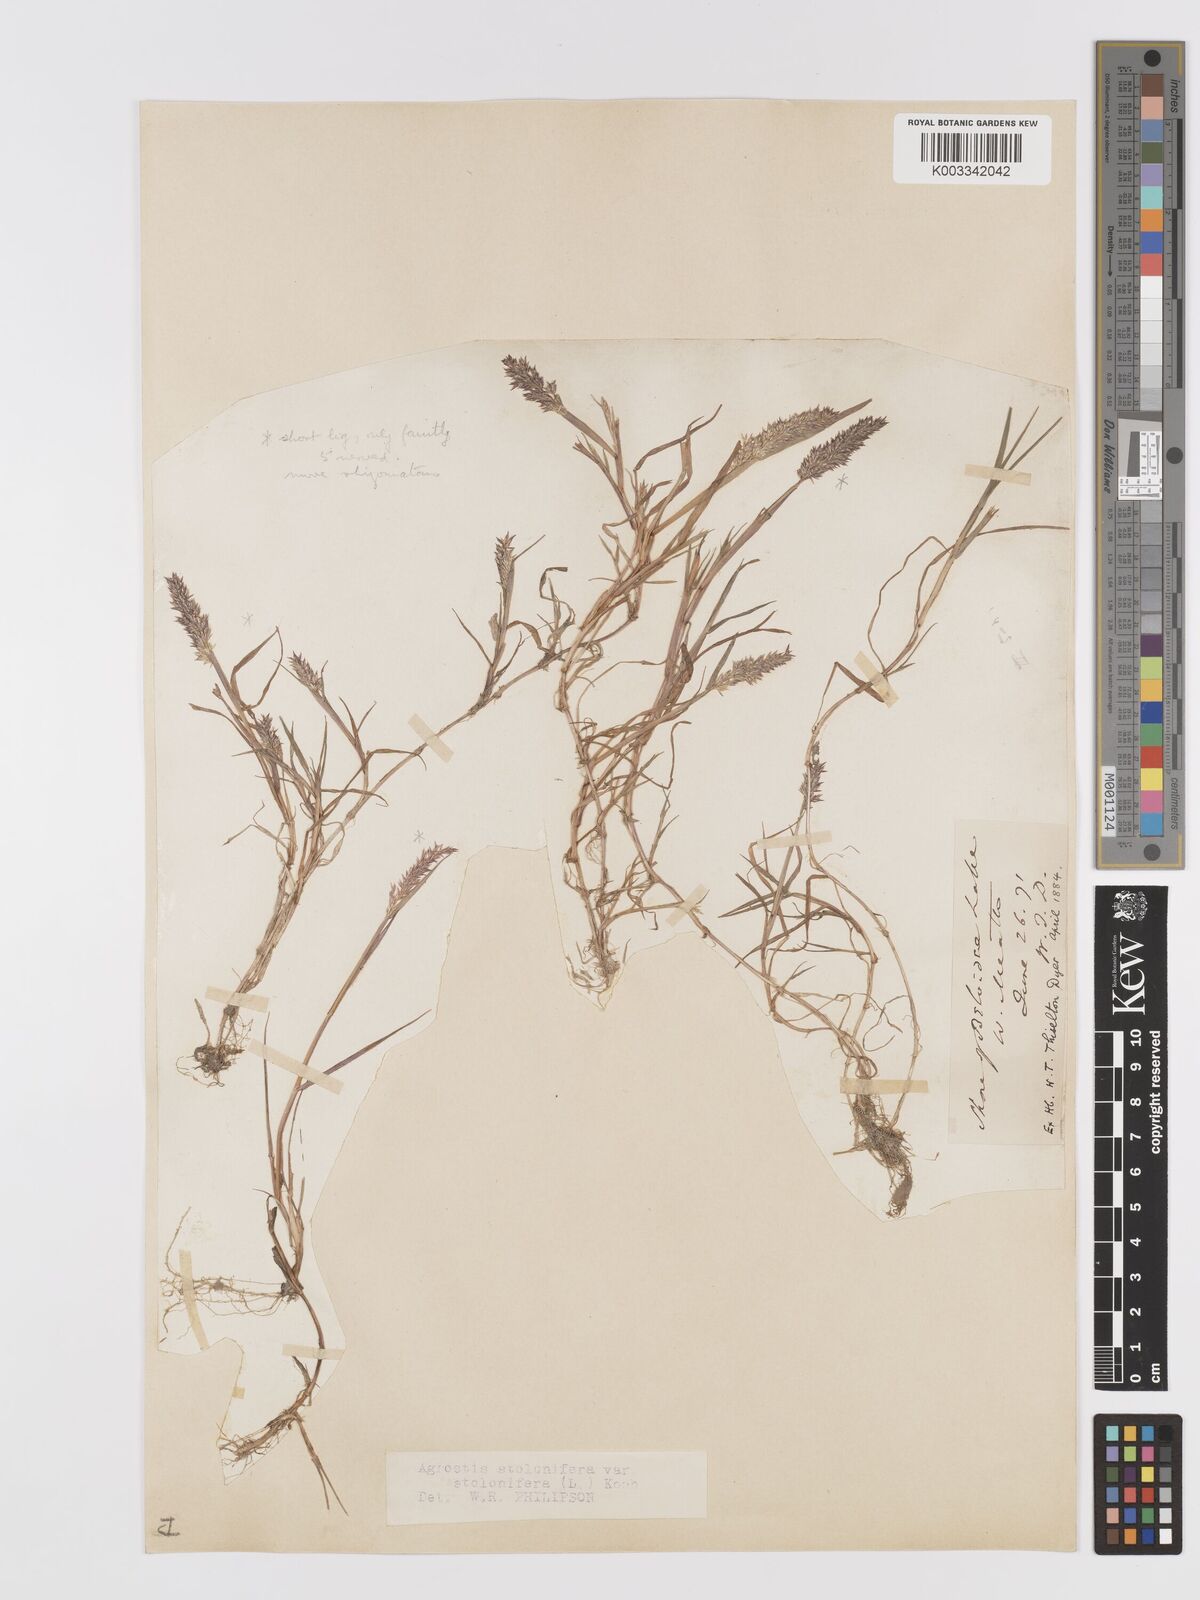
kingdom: Plantae
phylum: Tracheophyta
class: Liliopsida
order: Poales
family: Poaceae
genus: Agrostis
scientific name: Agrostis stolonifera
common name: Creeping bentgrass
